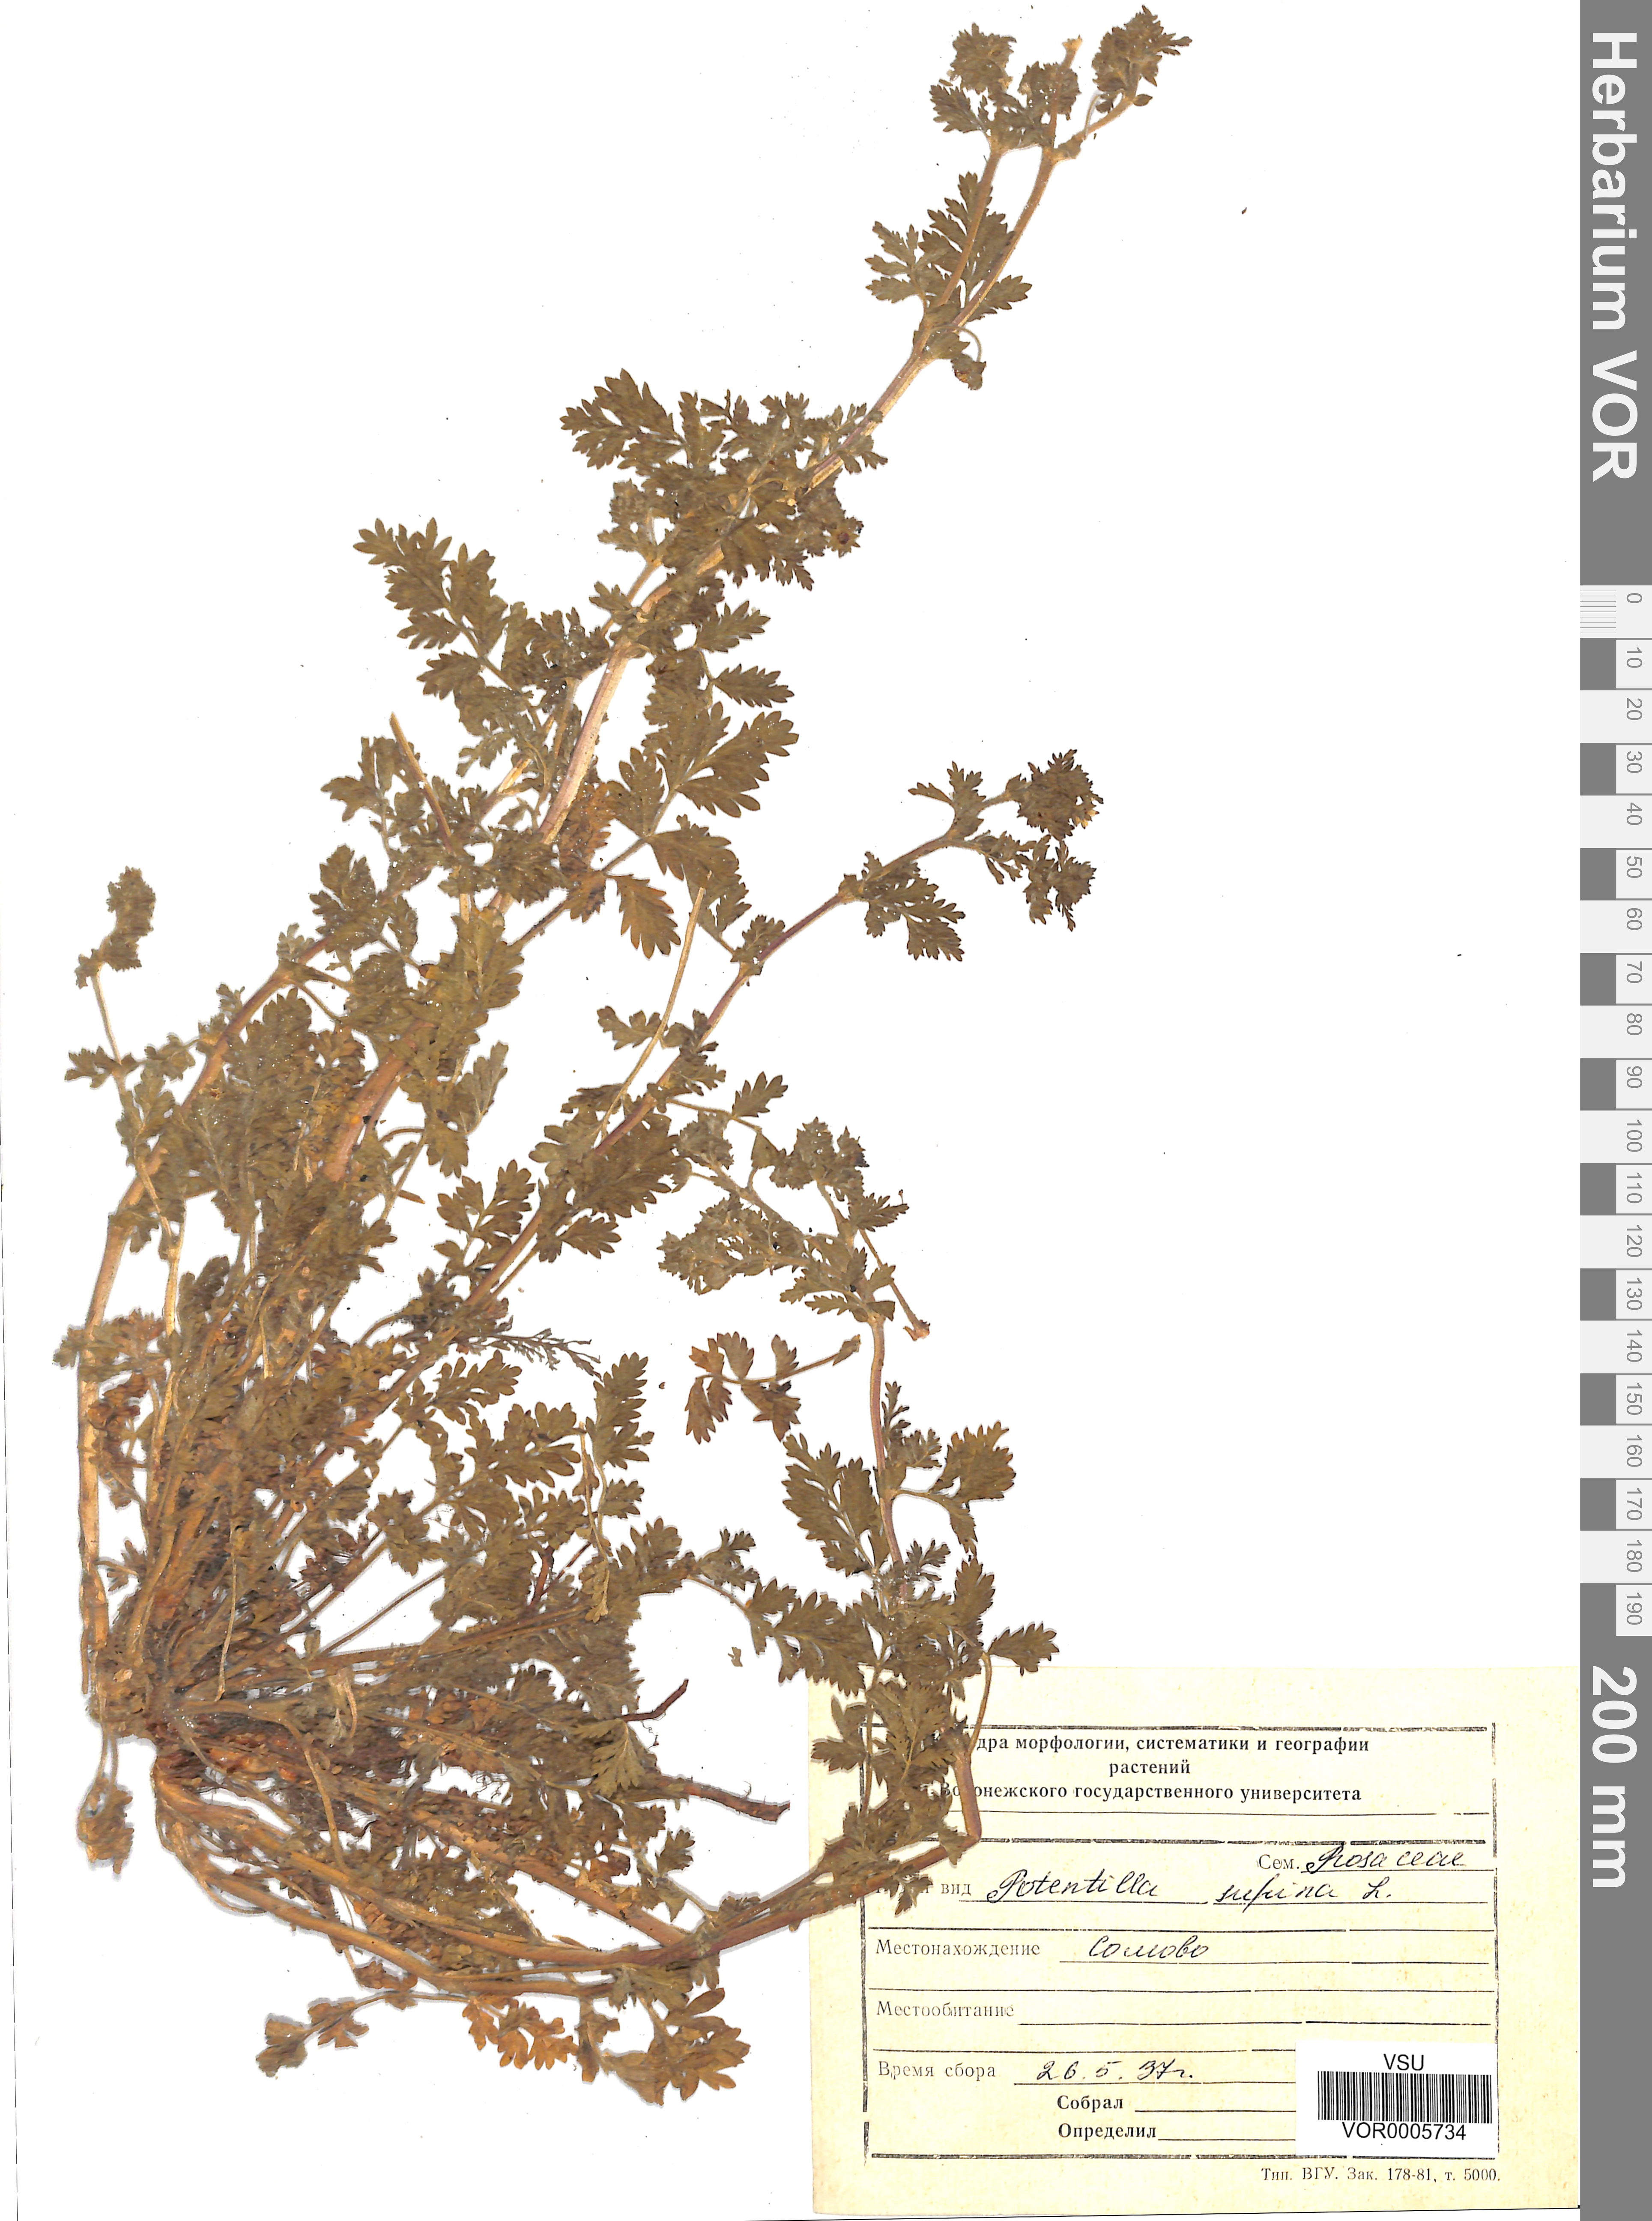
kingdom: Plantae
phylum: Tracheophyta
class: Magnoliopsida
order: Rosales
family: Rosaceae
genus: Potentilla
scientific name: Potentilla supina
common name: Prostrate cinquefoil
